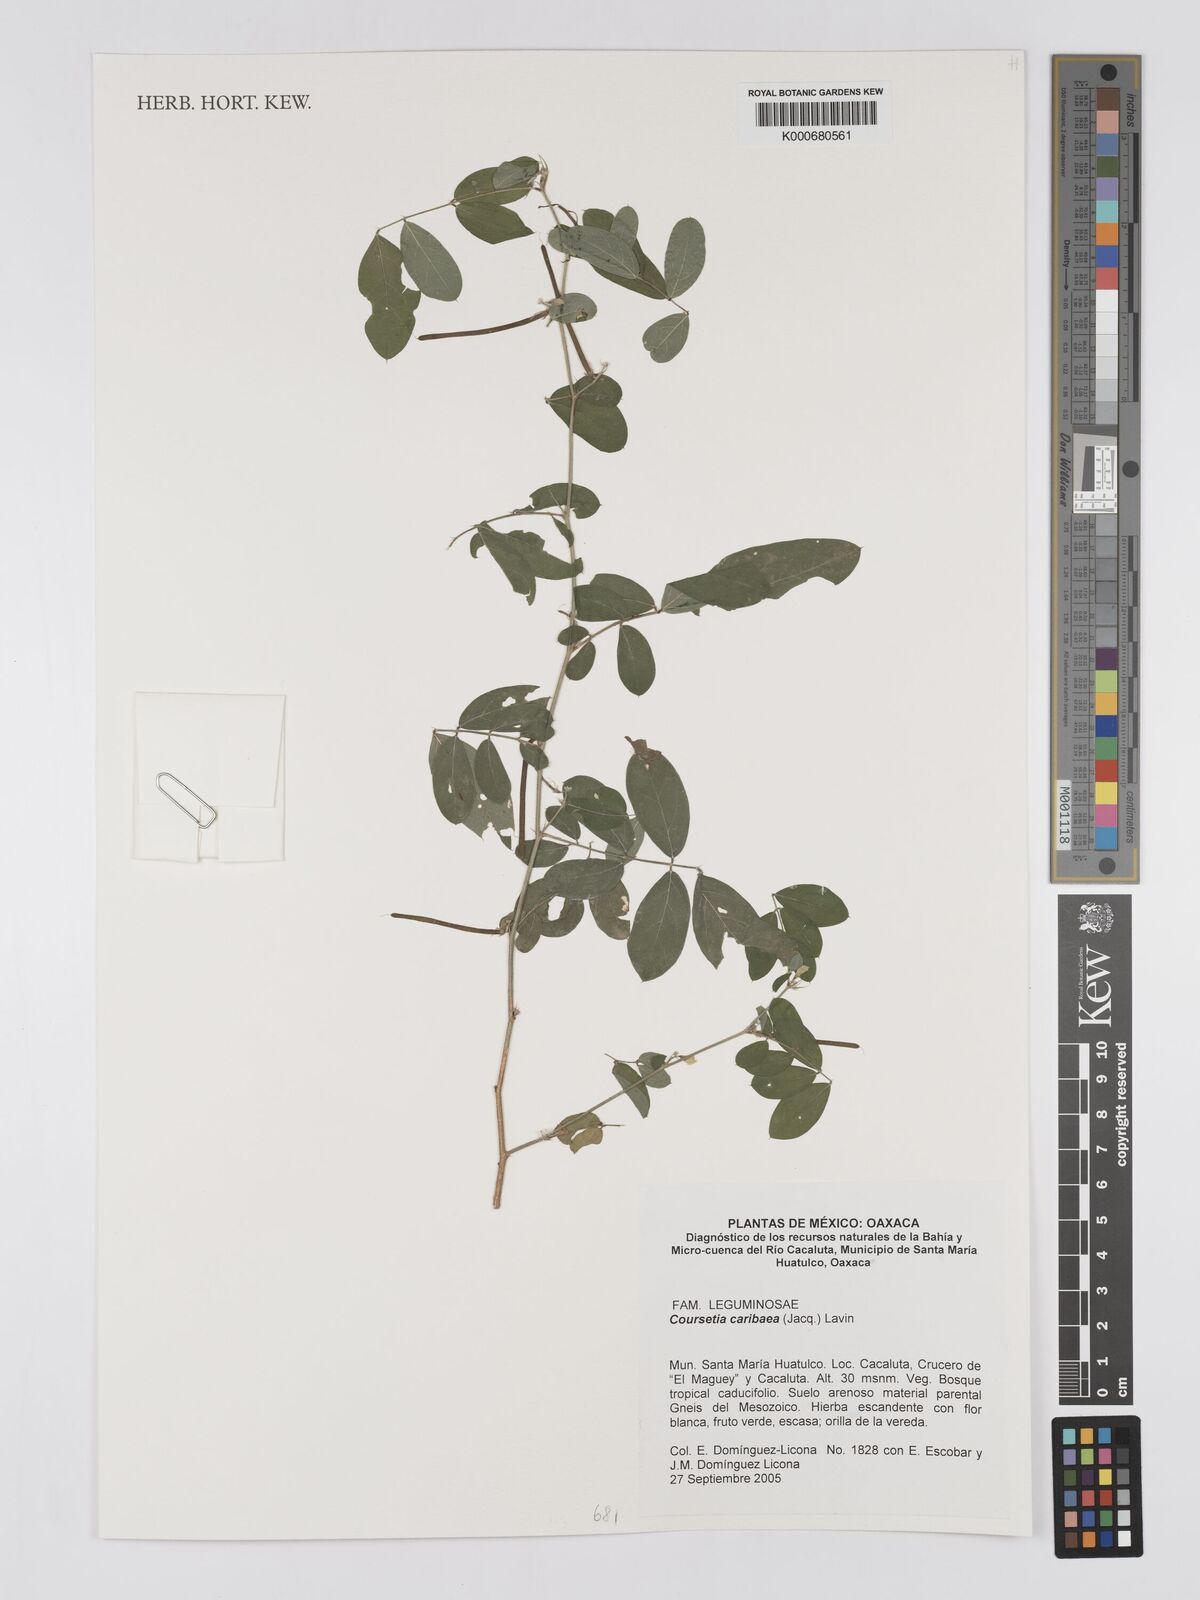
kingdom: Plantae
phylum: Tracheophyta
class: Magnoliopsida
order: Fabales
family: Fabaceae
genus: Coursetia
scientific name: Coursetia caribaea
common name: Anil falso
